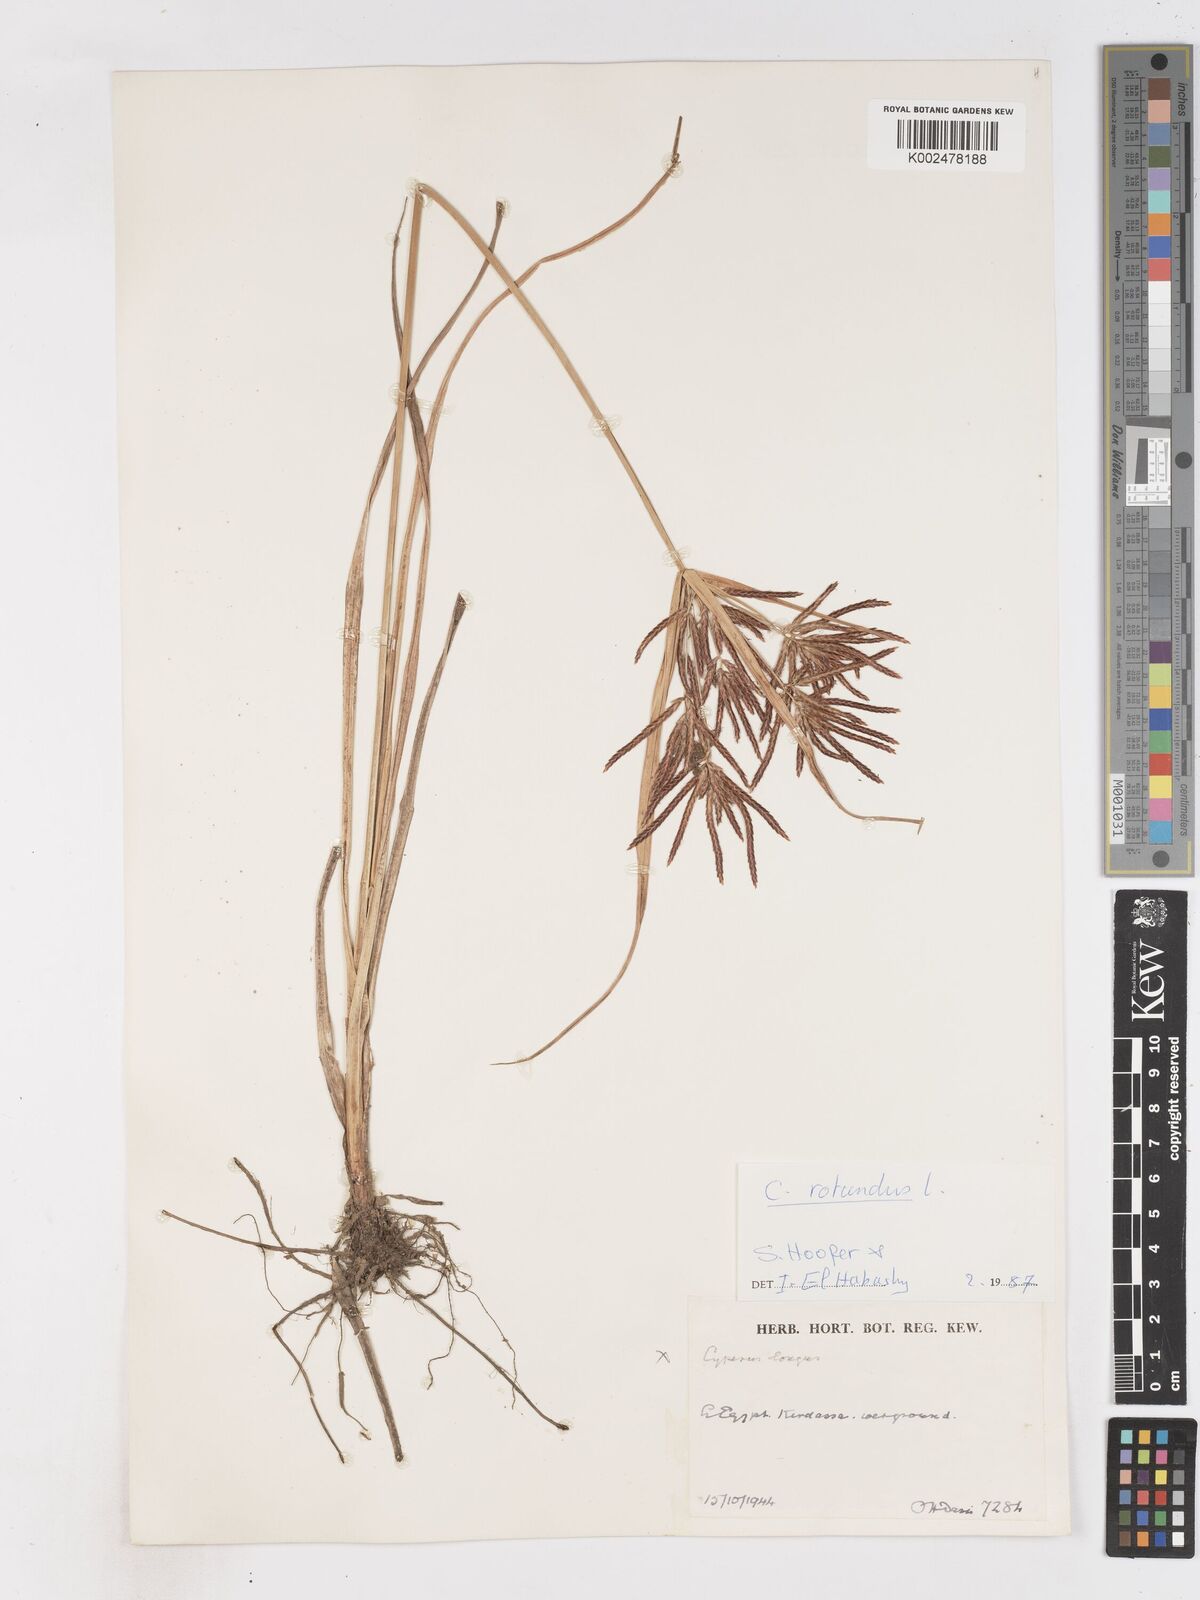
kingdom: Plantae
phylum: Tracheophyta
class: Liliopsida
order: Poales
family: Cyperaceae
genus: Cyperus
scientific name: Cyperus rotundus
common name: Nutgrass
